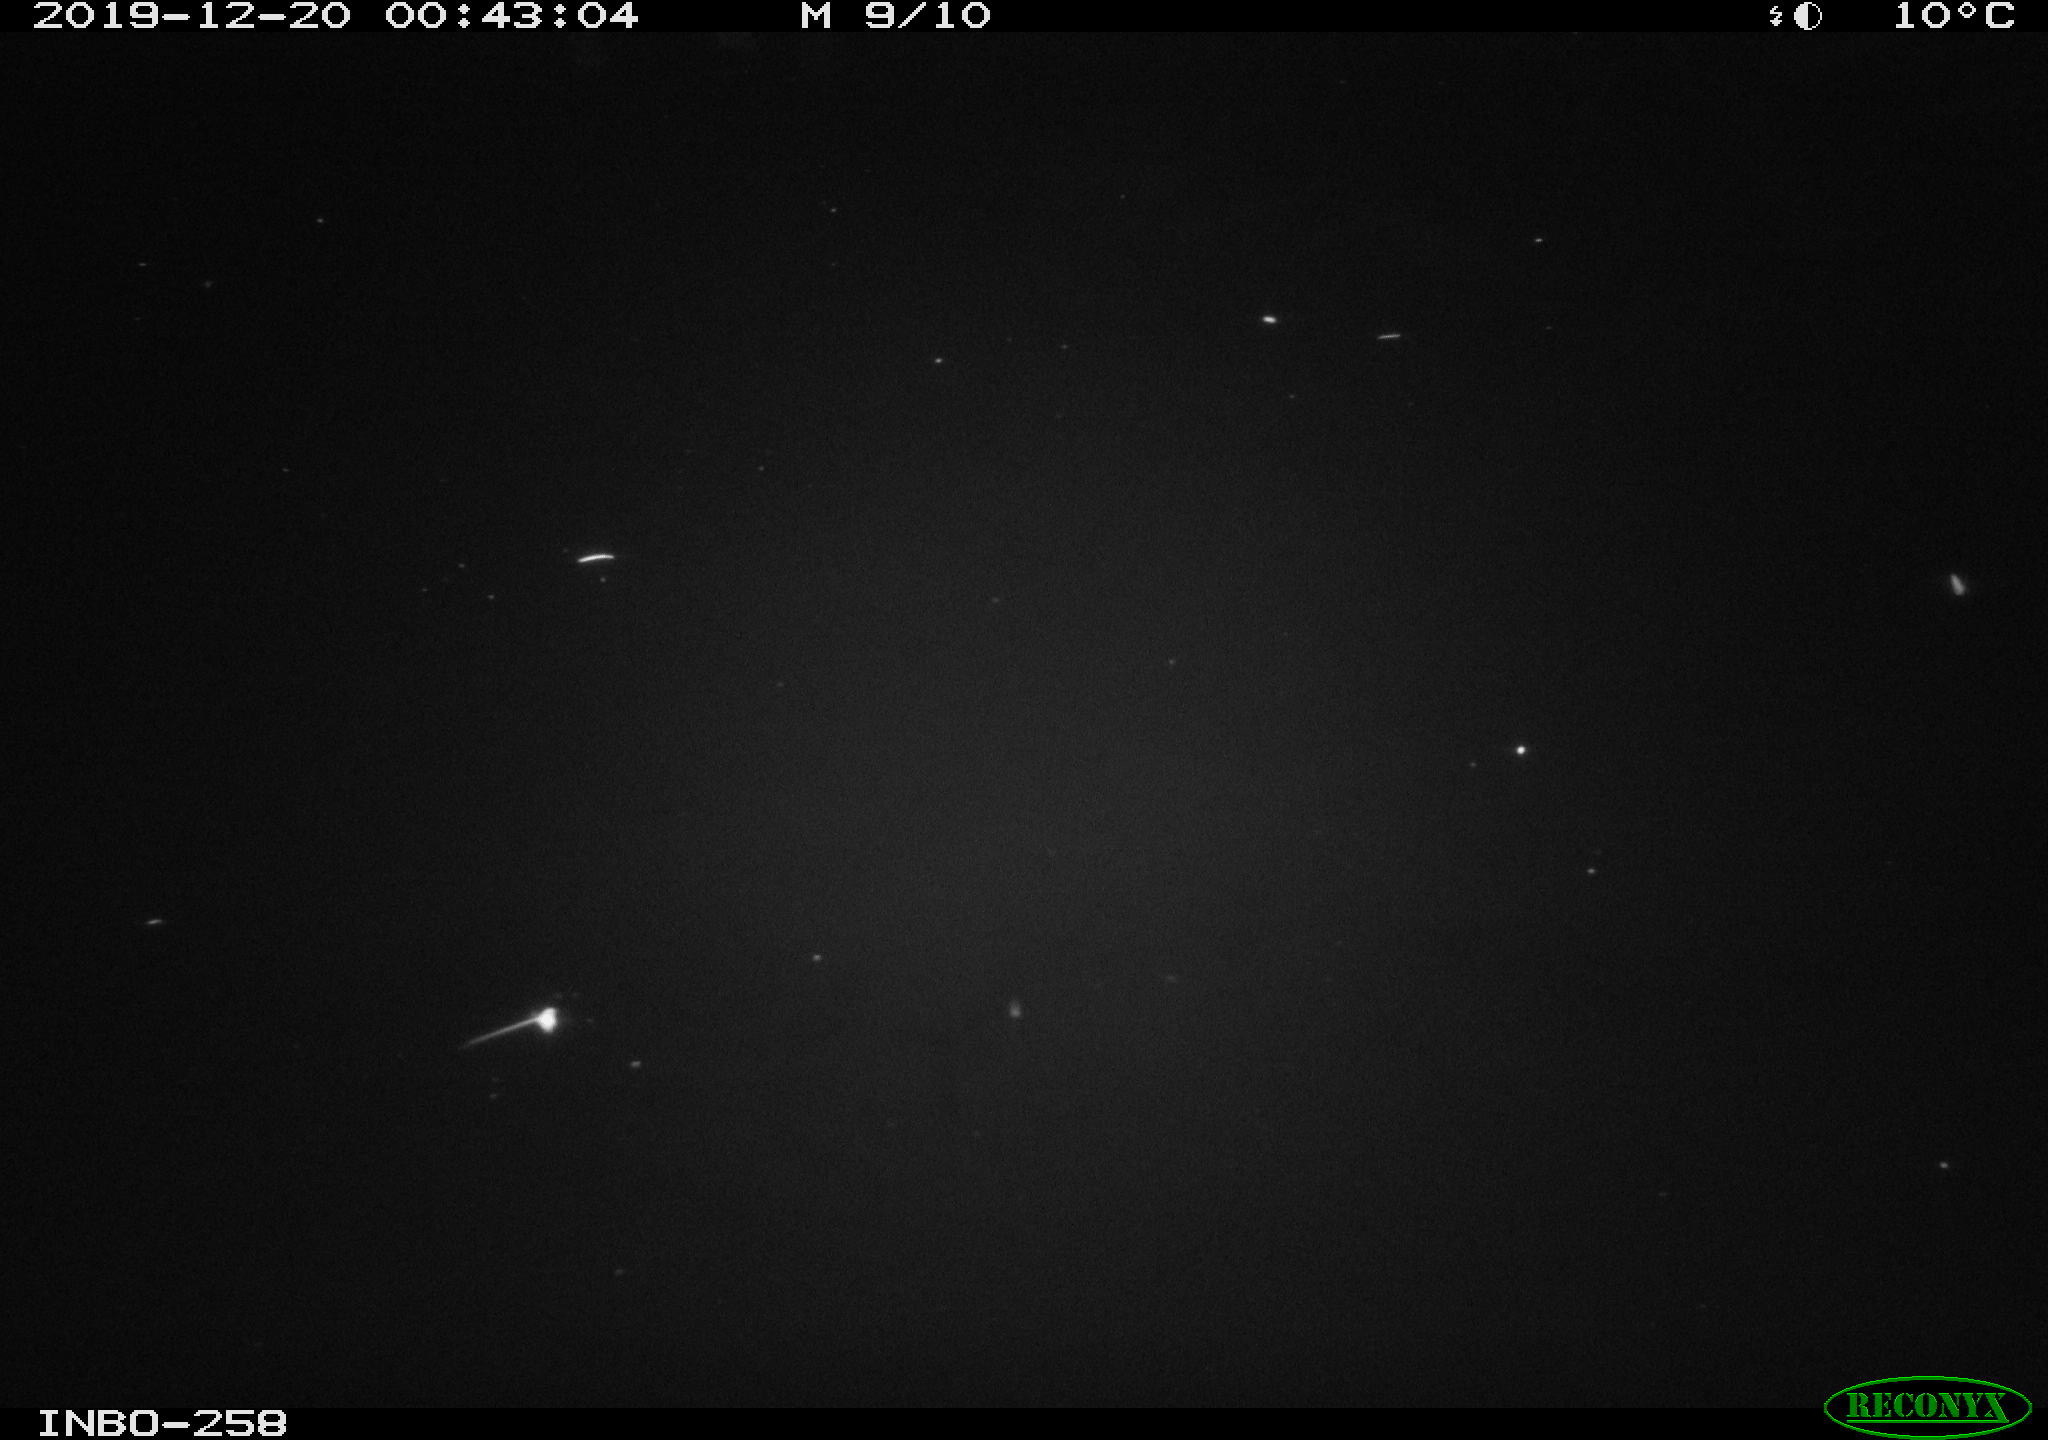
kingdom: Animalia
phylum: Chordata
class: Aves
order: Anseriformes
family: Anatidae
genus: Anas
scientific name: Anas platyrhynchos
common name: Mallard
